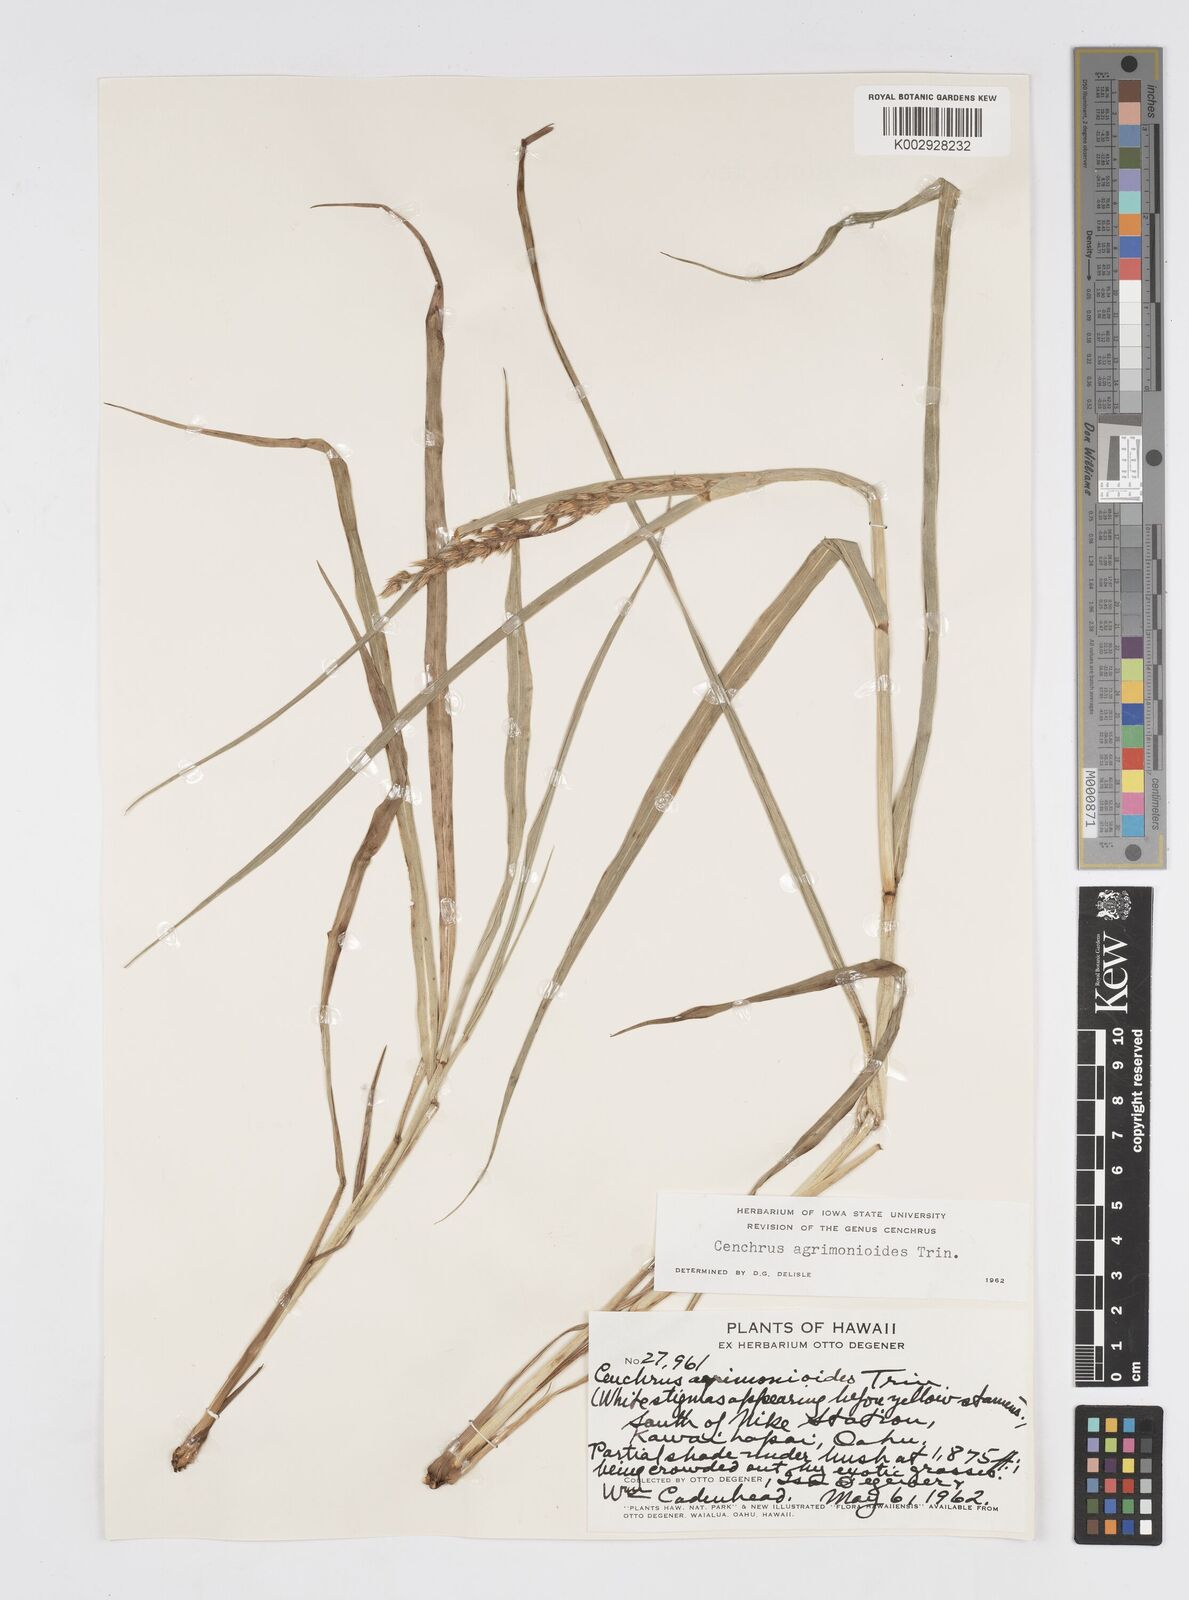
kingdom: Plantae
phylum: Tracheophyta
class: Liliopsida
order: Poales
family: Poaceae
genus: Cenchrus
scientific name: Cenchrus agrimonioides
